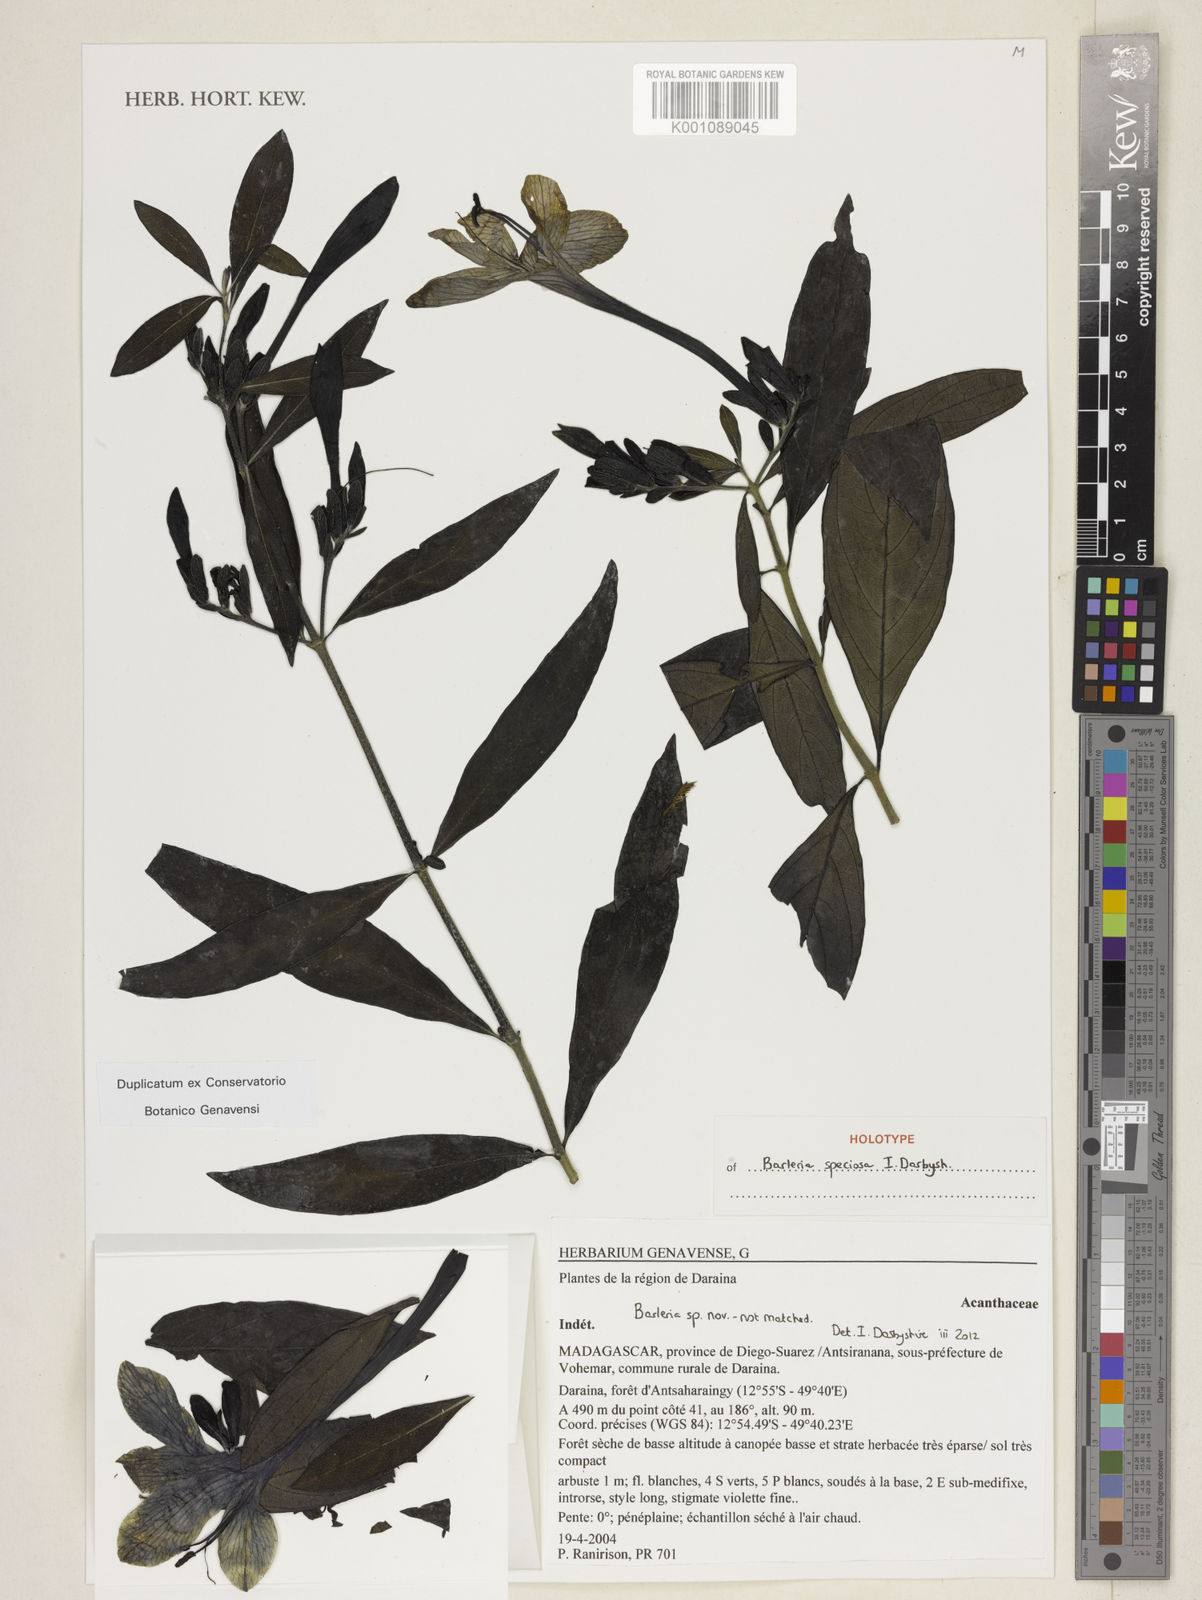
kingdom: Plantae
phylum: Tracheophyta
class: Magnoliopsida
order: Lamiales
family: Acanthaceae
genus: Barleria
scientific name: Barleria speciosa
